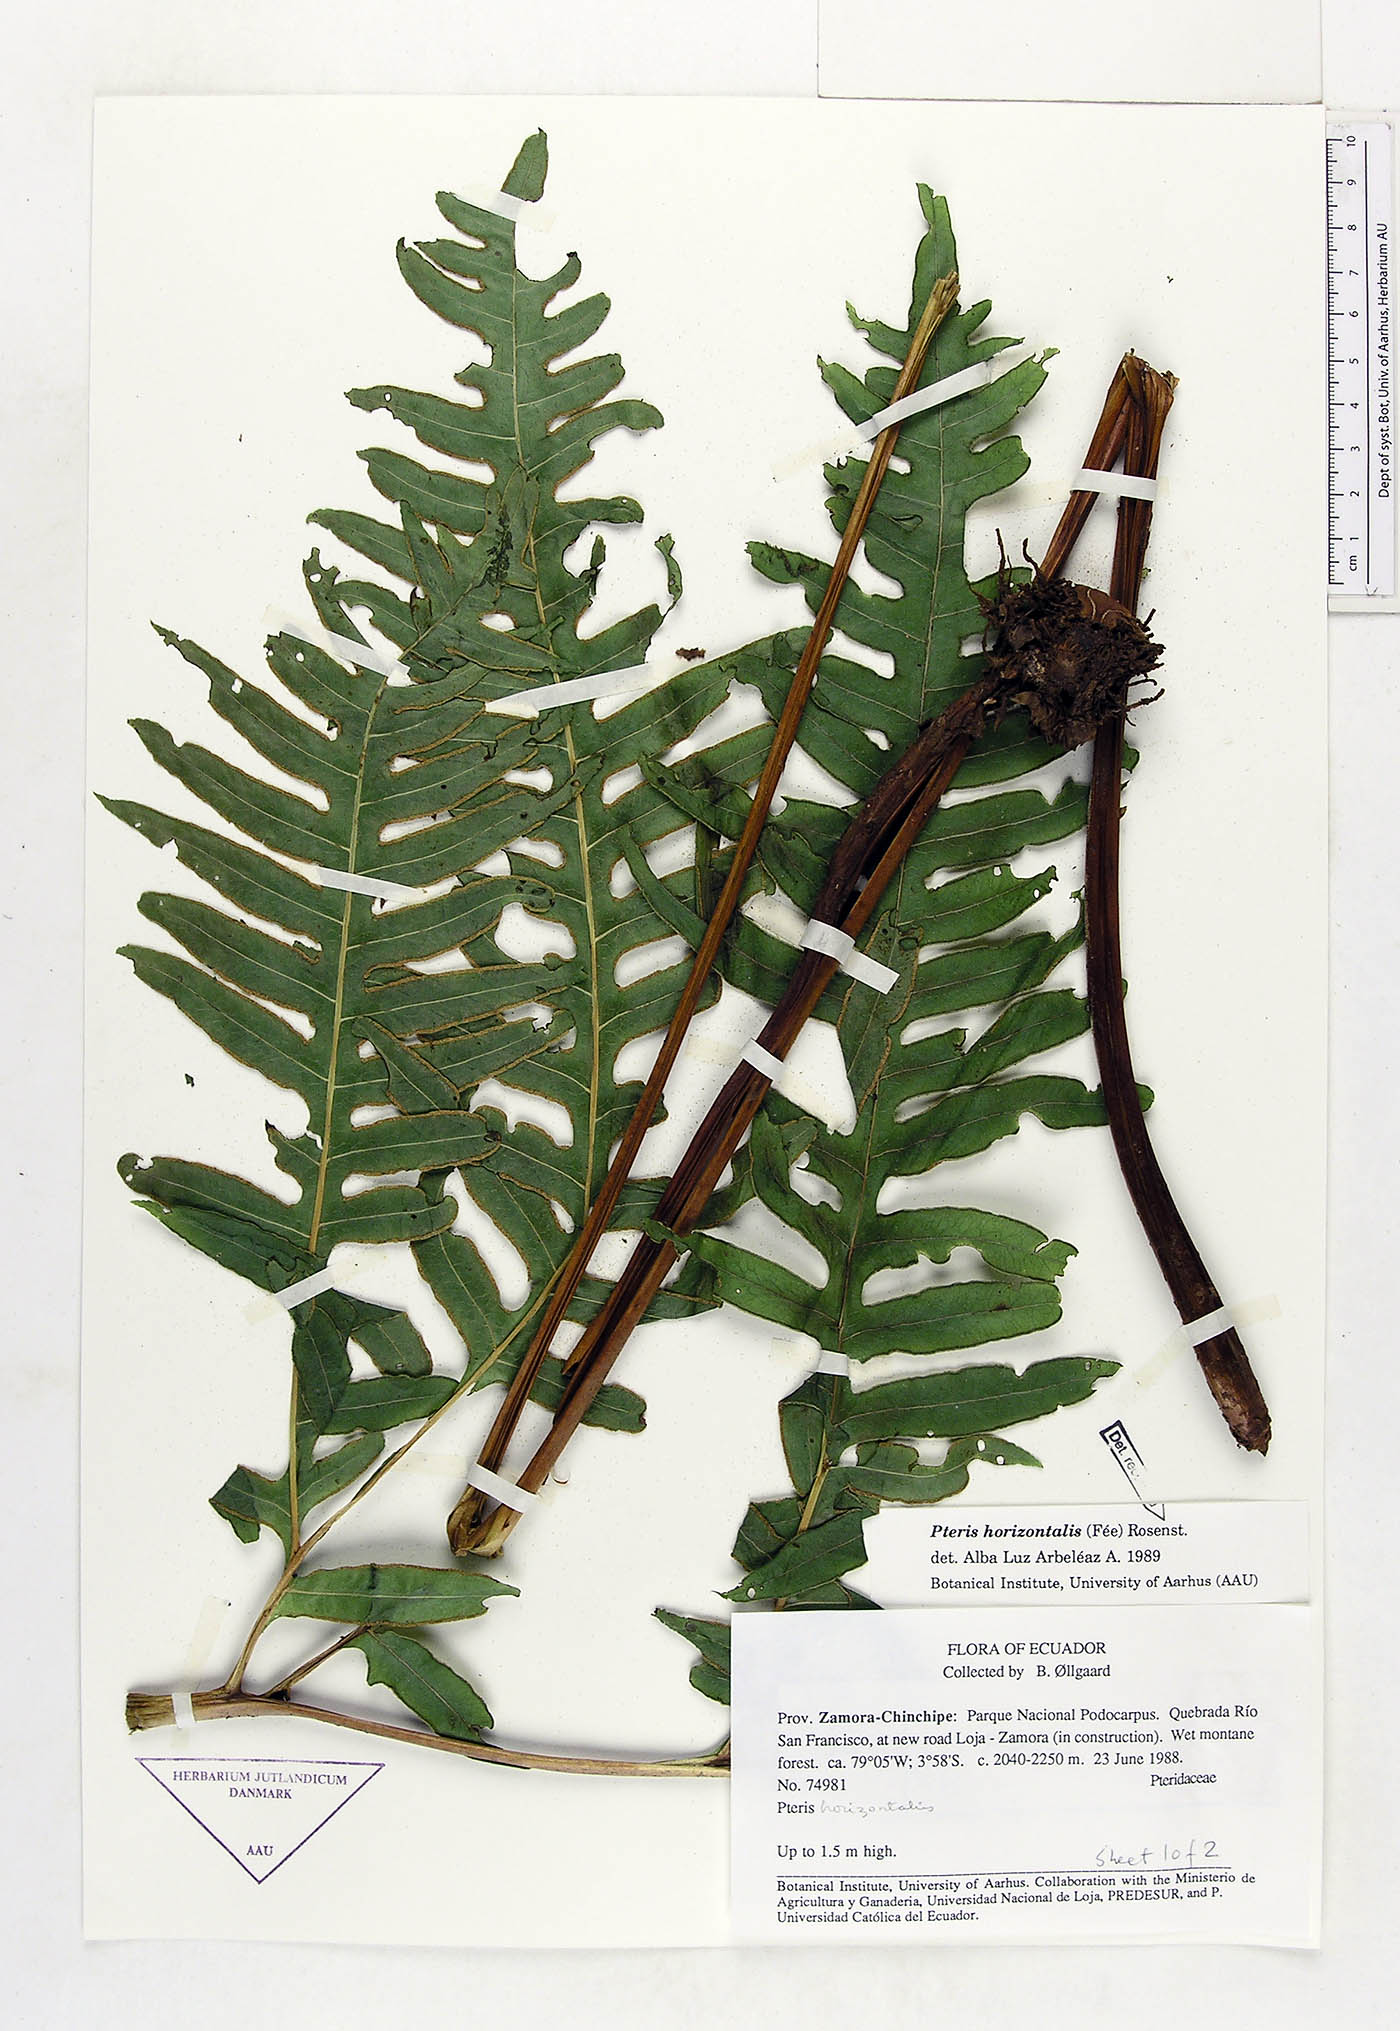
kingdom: Plantae
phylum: Tracheophyta
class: Polypodiopsida
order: Polypodiales
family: Pteridaceae
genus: Pteris
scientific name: Pteris decurrens
